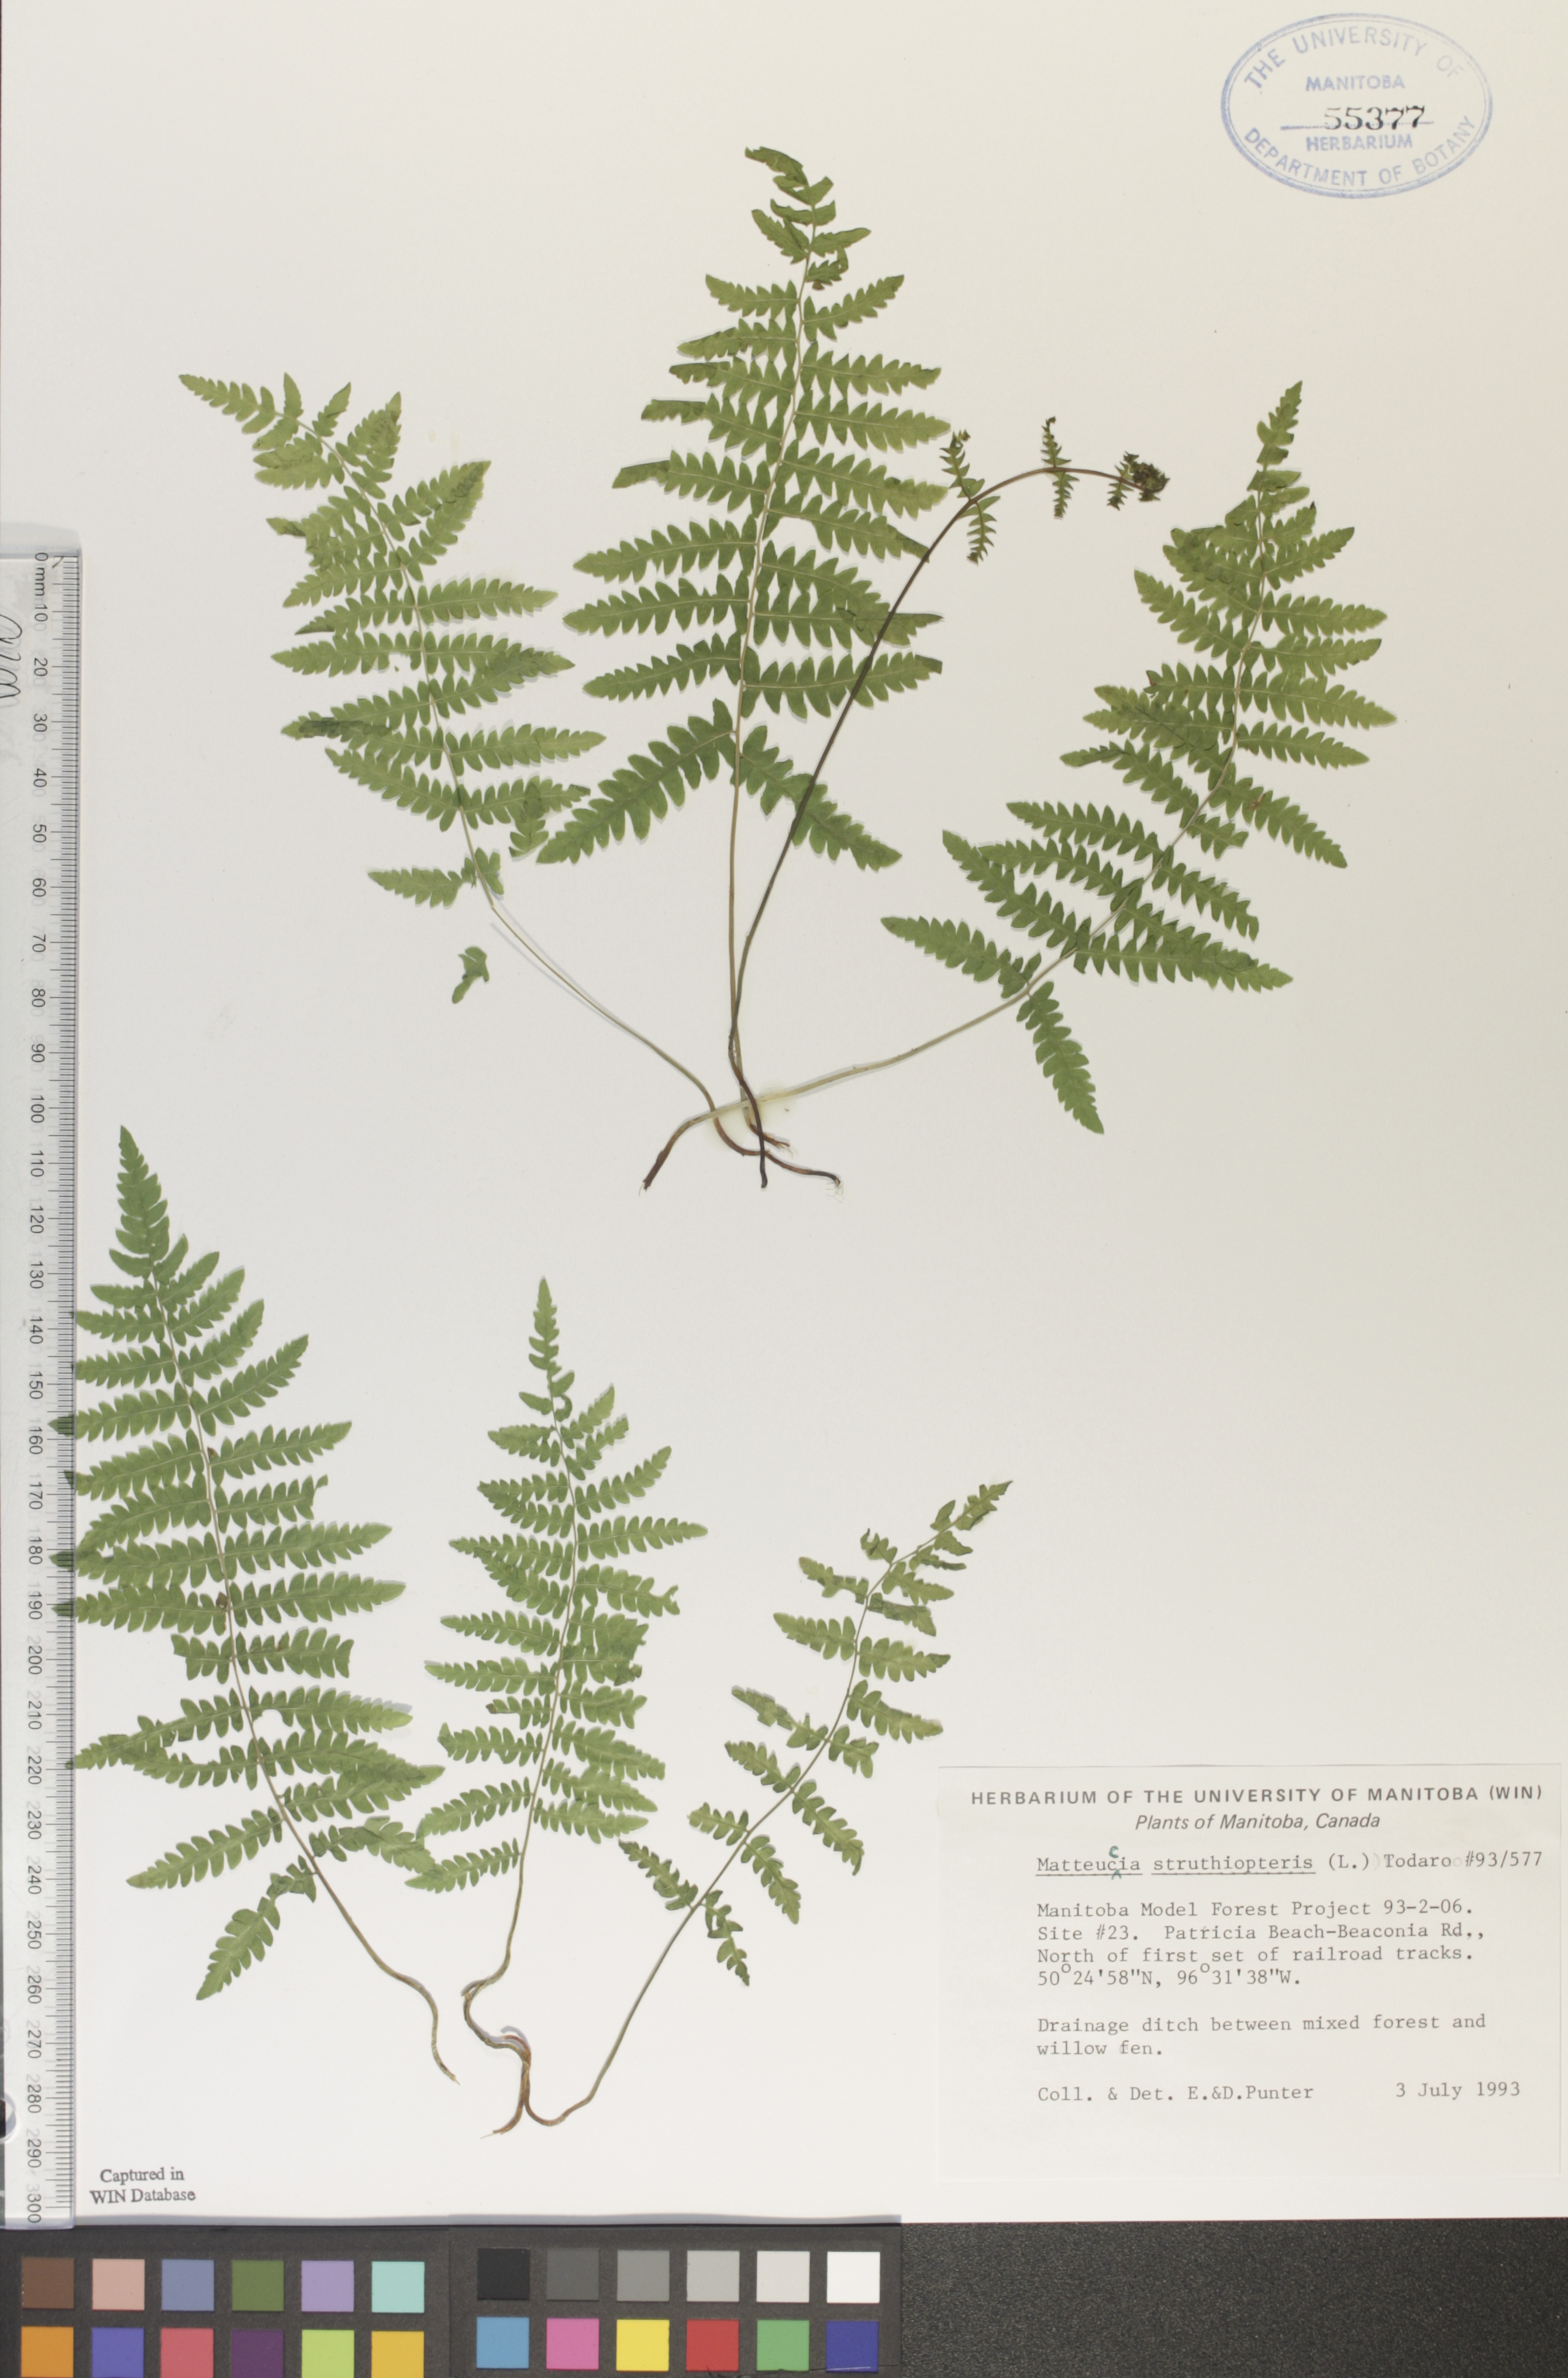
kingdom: Plantae
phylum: Tracheophyta
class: Polypodiopsida
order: Polypodiales
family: Onocleaceae
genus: Matteuccia
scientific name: Matteuccia struthiopteris
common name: Ostrich fern
